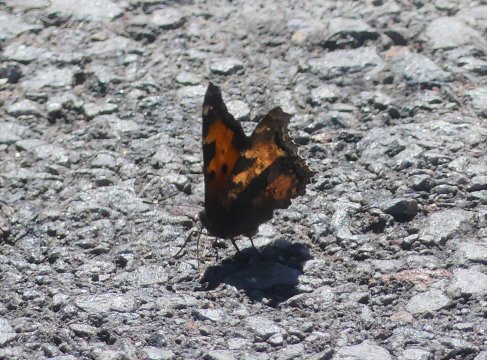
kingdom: Animalia
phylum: Arthropoda
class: Insecta
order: Lepidoptera
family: Nymphalidae
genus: Nymphalis
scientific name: Nymphalis californica
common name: California Tortoiseshell
